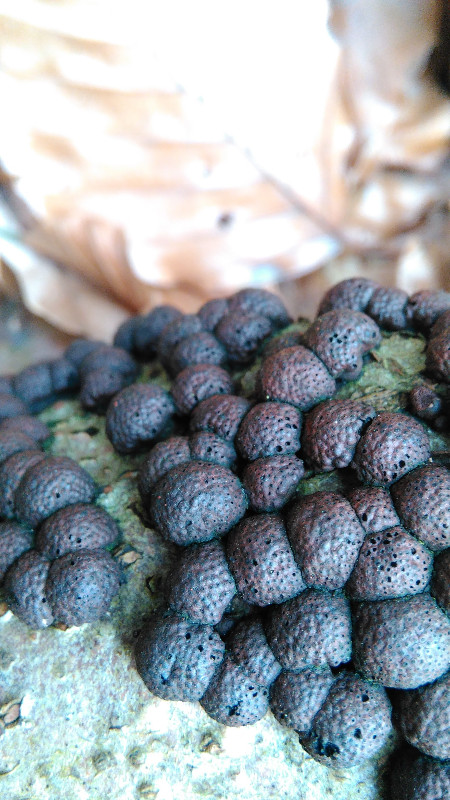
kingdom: Fungi
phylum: Ascomycota
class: Sordariomycetes
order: Xylariales
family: Hypoxylaceae
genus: Hypoxylon
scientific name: Hypoxylon fragiforme
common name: kuljordbær
